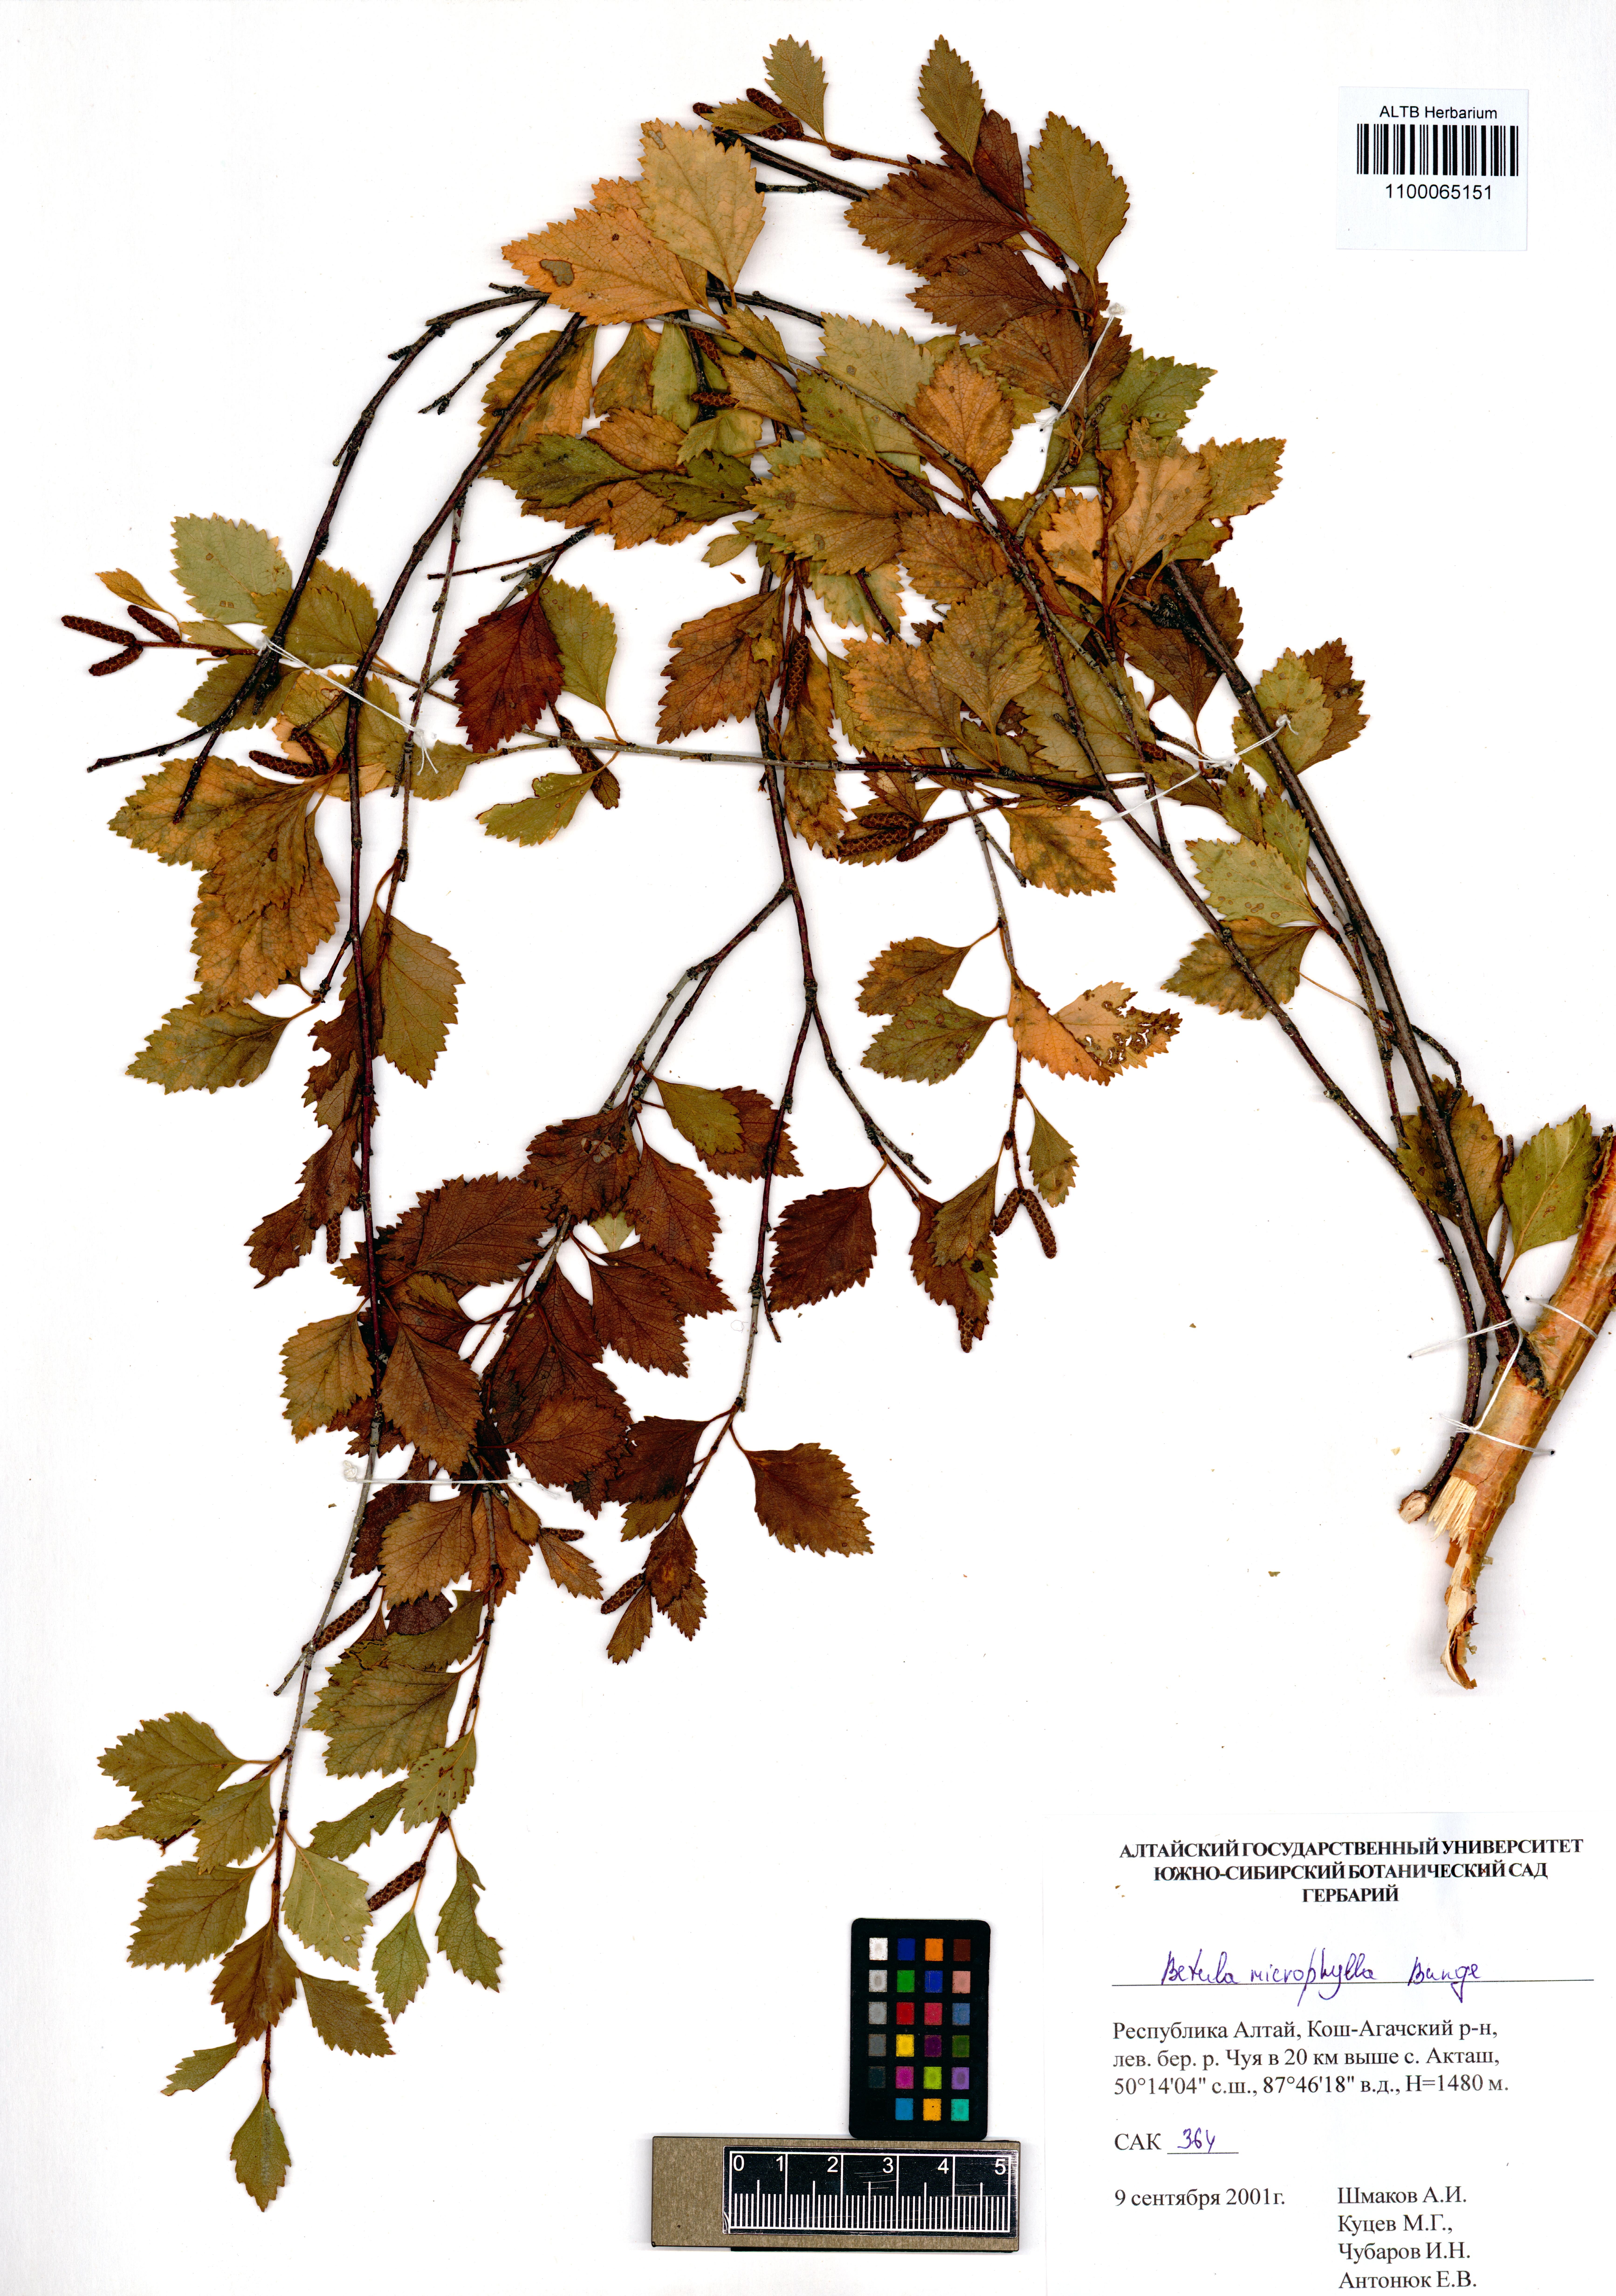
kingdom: Plantae
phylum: Tracheophyta
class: Magnoliopsida
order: Fagales
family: Betulaceae
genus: Betula
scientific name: Betula microphylla
